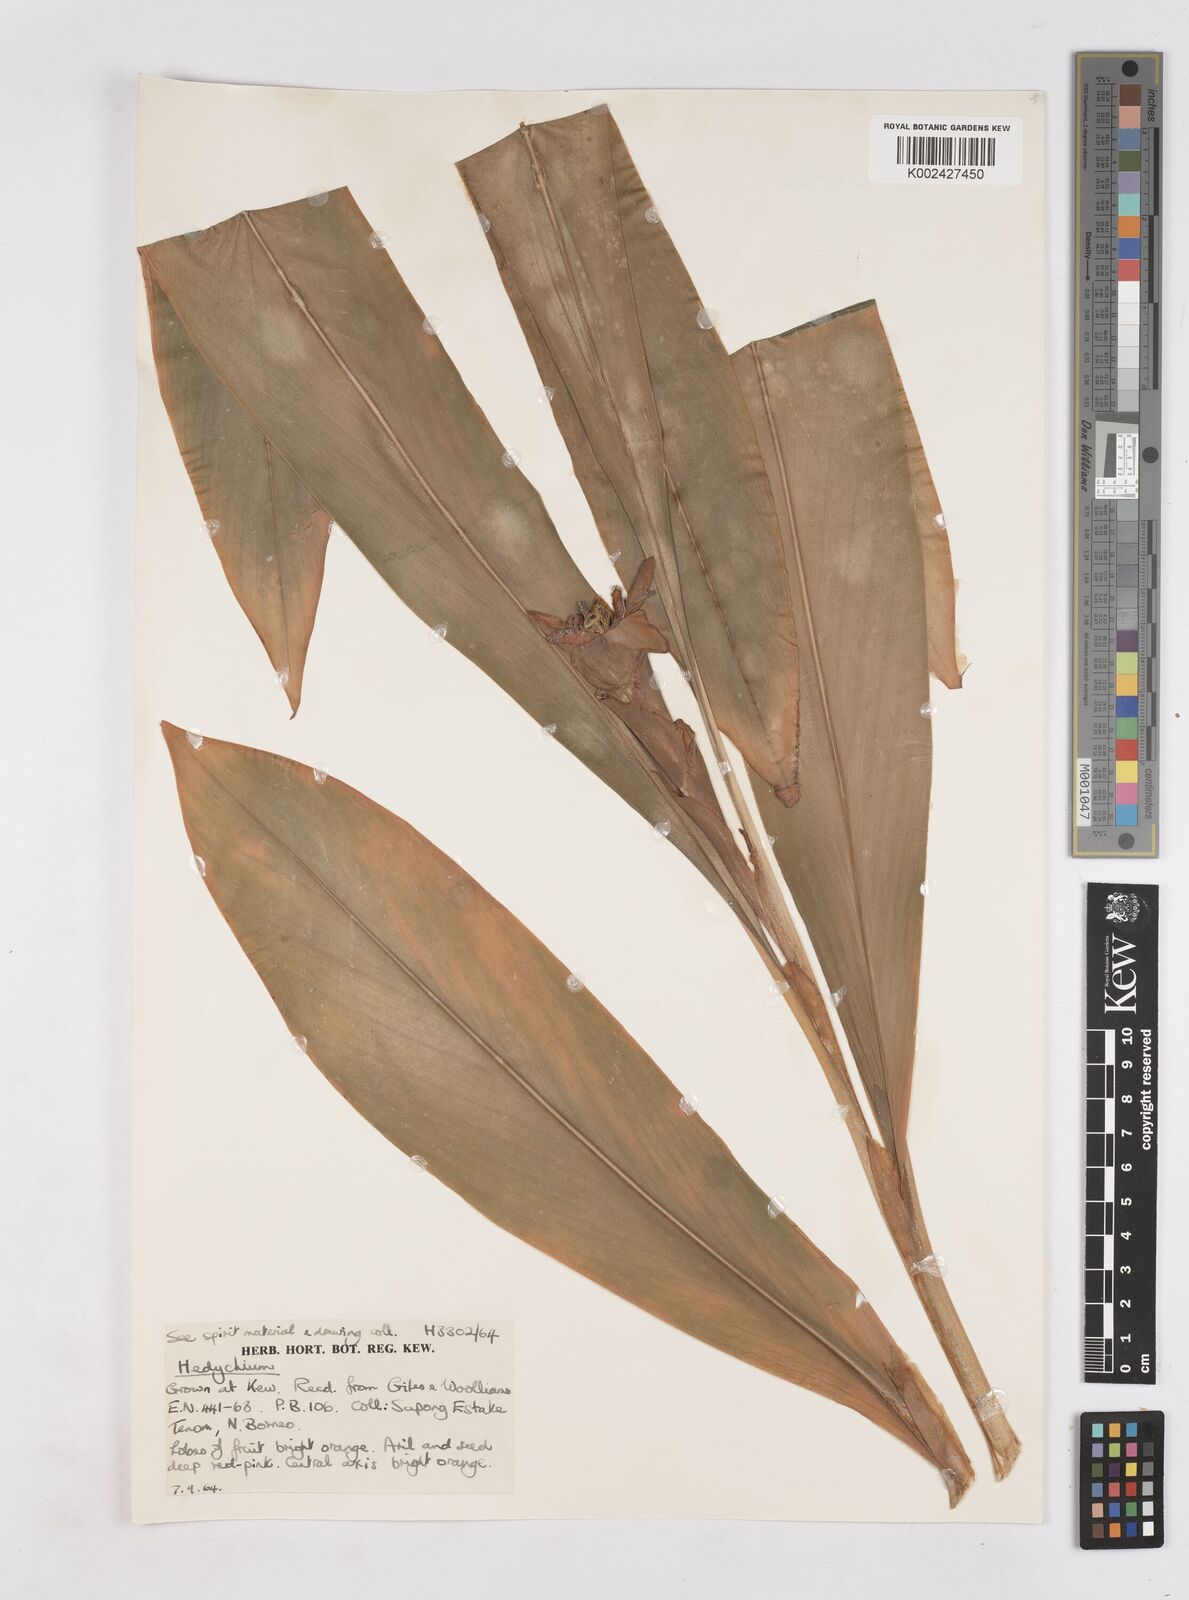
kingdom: Plantae
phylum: Tracheophyta
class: Liliopsida
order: Zingiberales
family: Zingiberaceae
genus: Hedychium
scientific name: Hedychium
